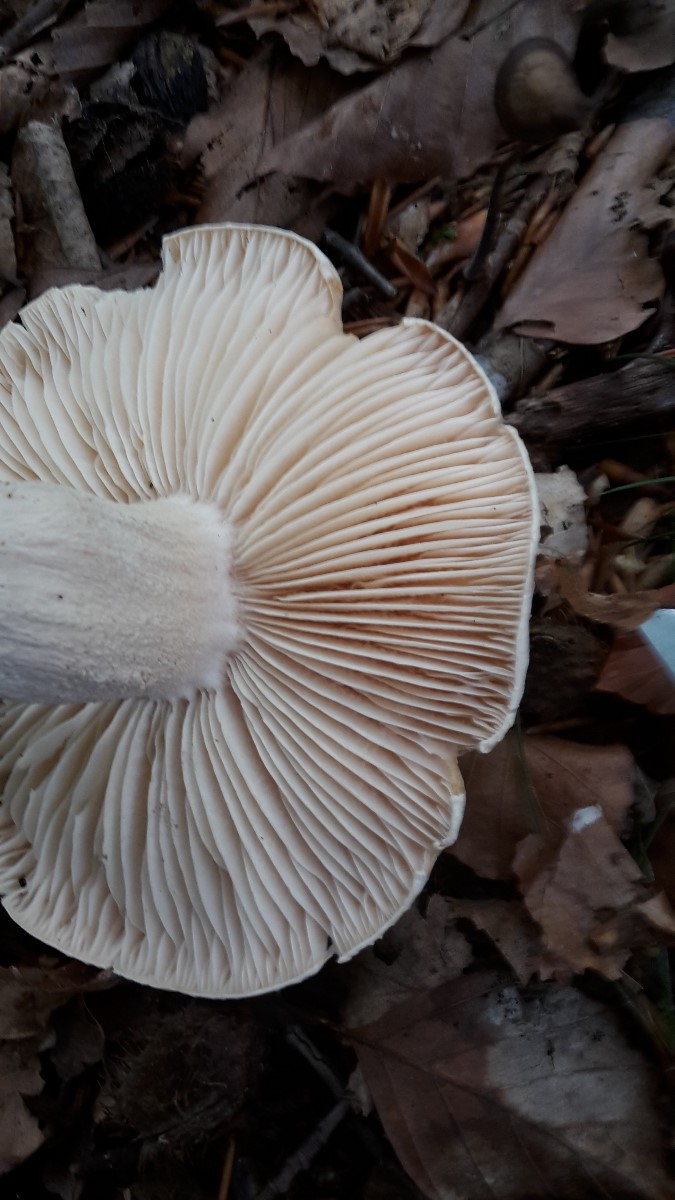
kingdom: Fungi
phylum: Basidiomycota
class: Agaricomycetes
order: Agaricales
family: Hygrophoraceae
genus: Hygrophorus
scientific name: Hygrophorus penarius
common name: spiselig sneglehat
